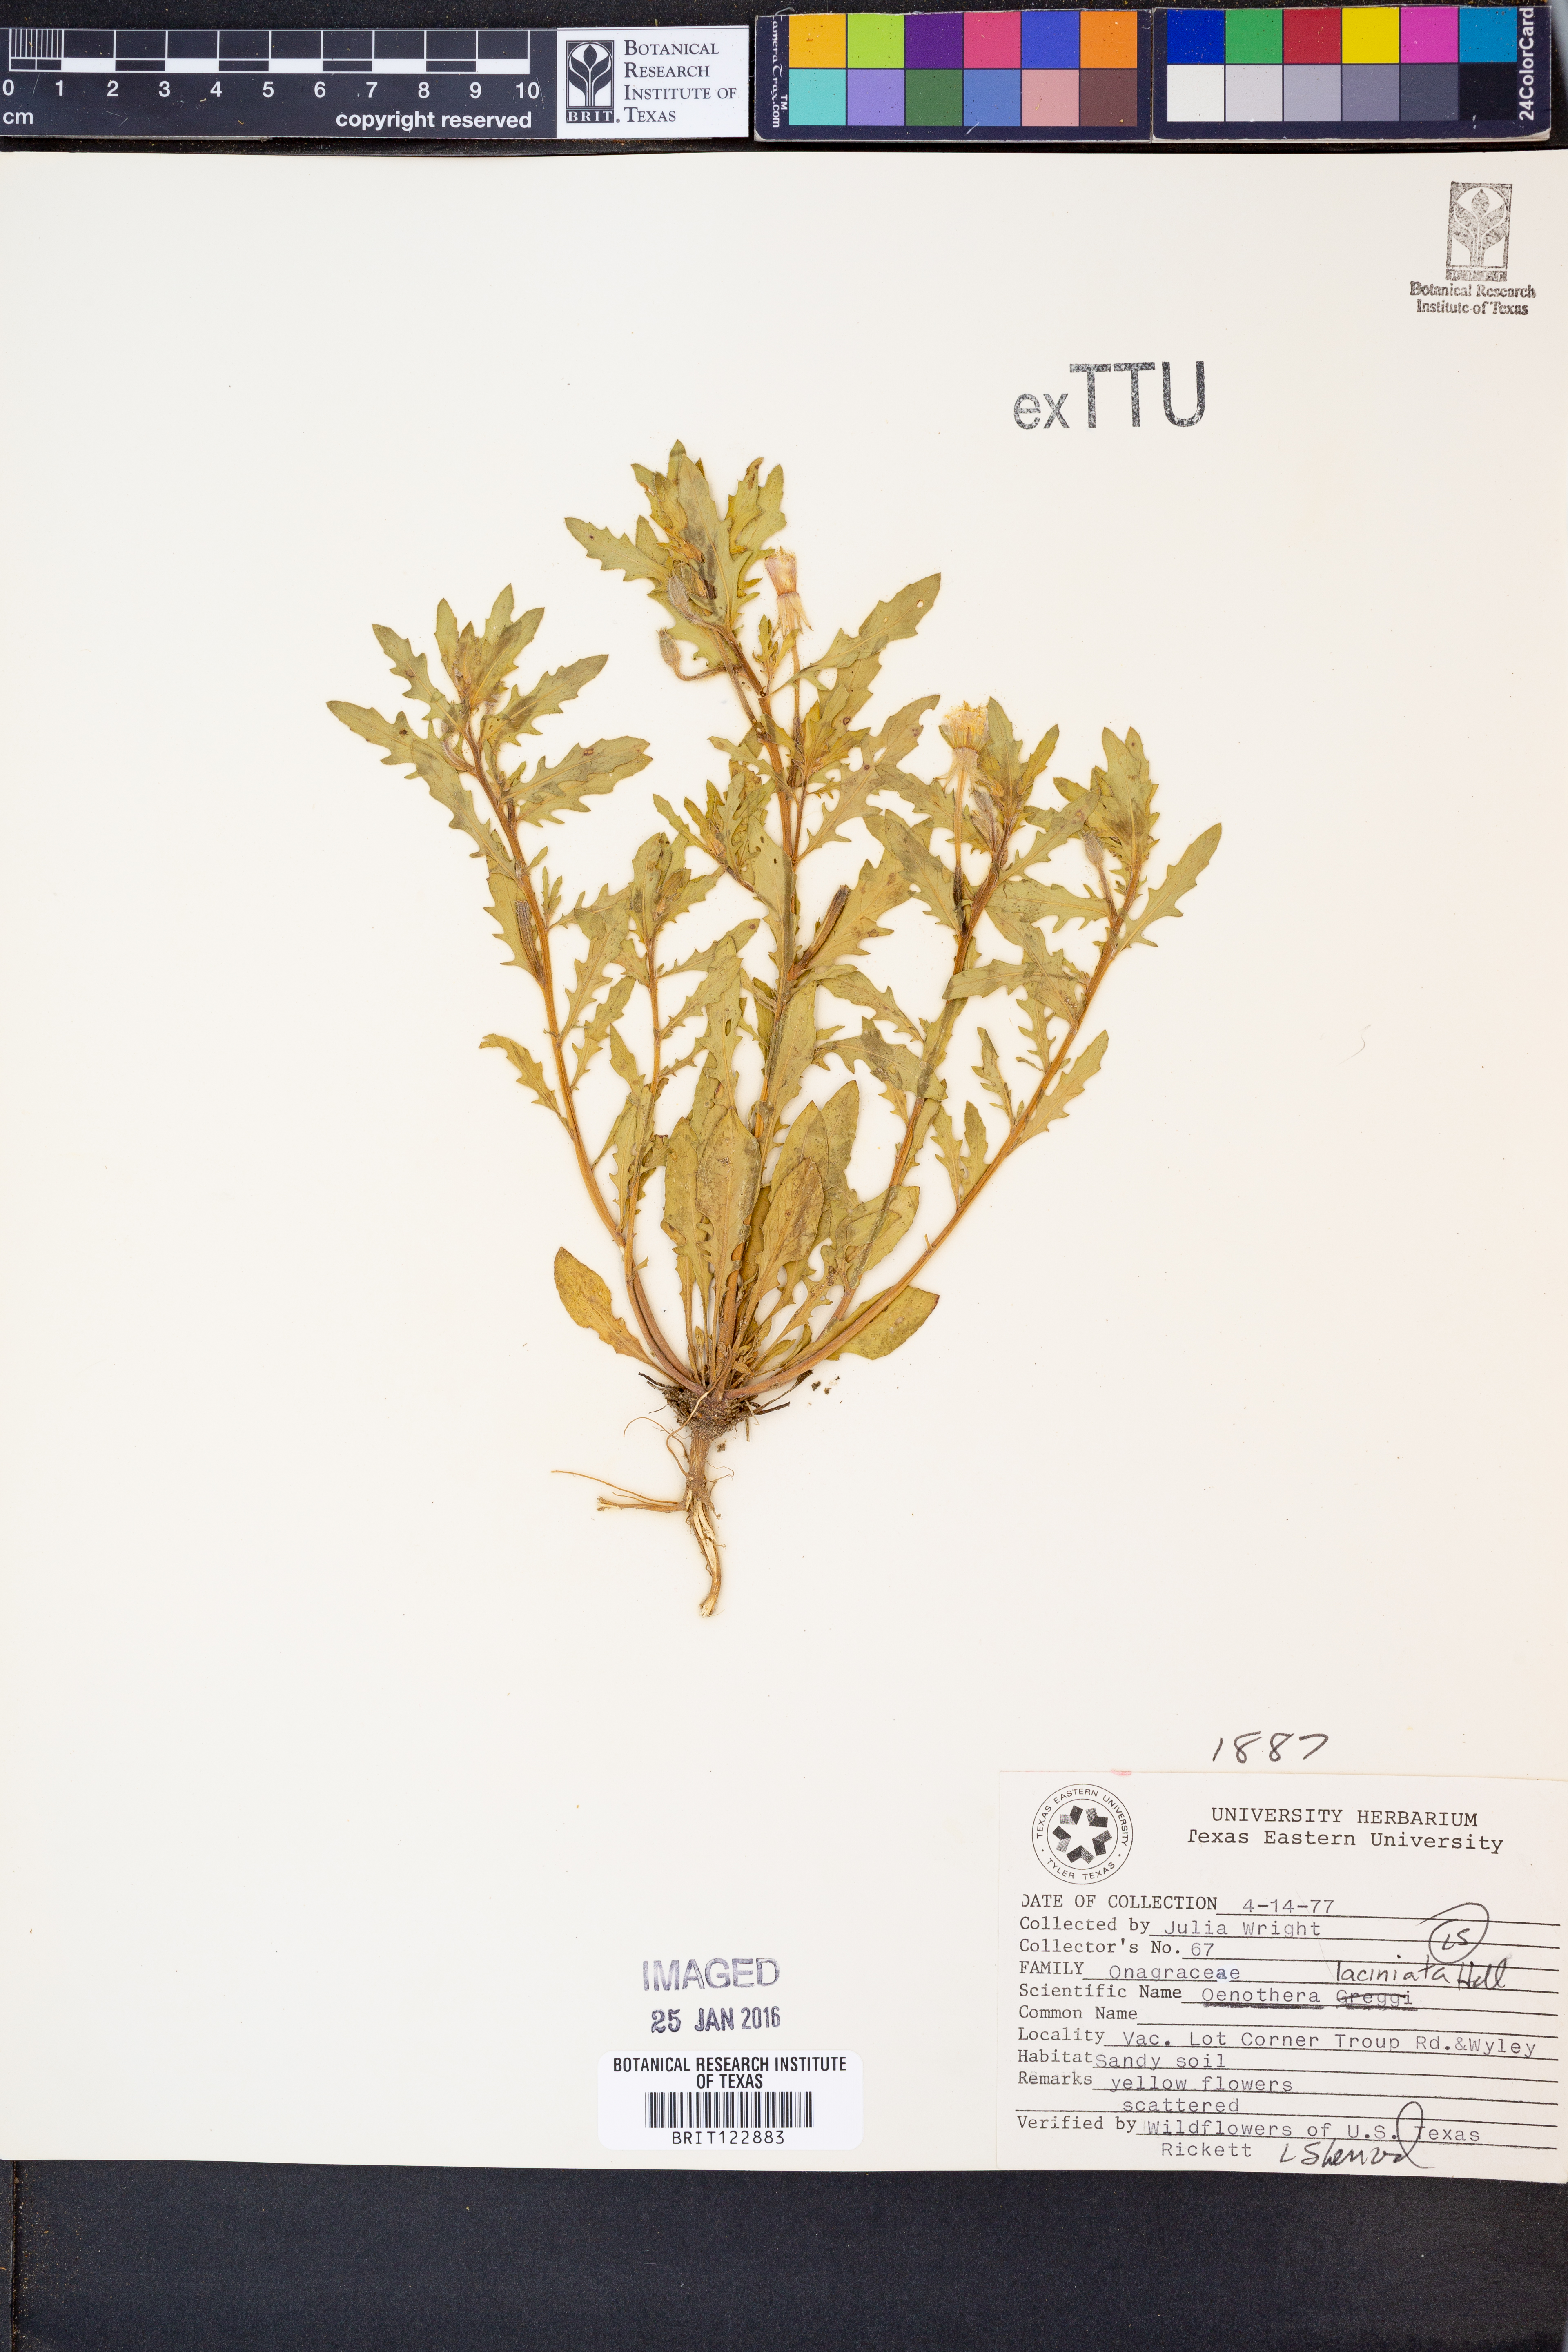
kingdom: Plantae
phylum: Tracheophyta
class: Magnoliopsida
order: Myrtales
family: Onagraceae
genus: Oenothera
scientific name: Oenothera laciniata
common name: Cut-leaved evening-primrose
